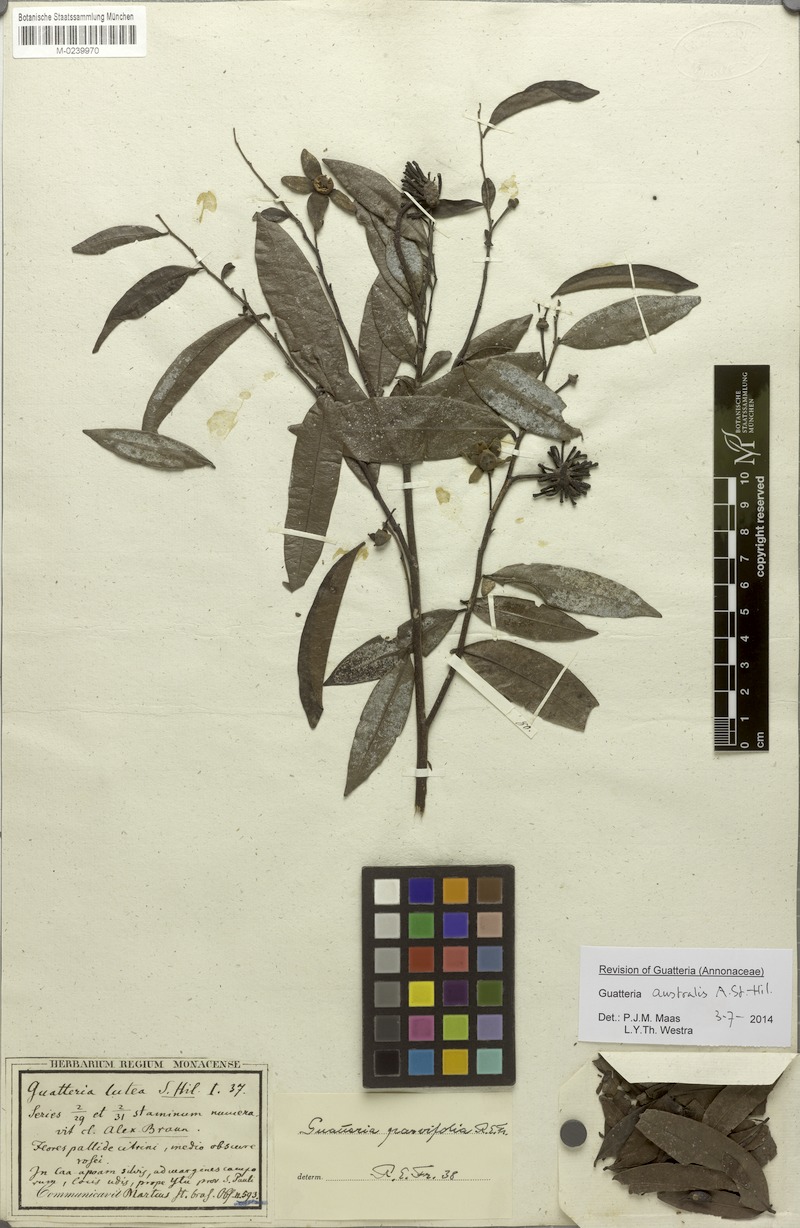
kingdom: Plantae
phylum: Tracheophyta
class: Magnoliopsida
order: Magnoliales
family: Annonaceae
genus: Guatteria
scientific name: Guatteria australis
